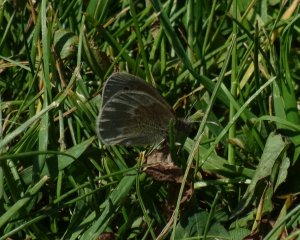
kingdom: Animalia
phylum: Arthropoda
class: Insecta
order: Lepidoptera
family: Nymphalidae
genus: Coenonympha
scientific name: Coenonympha tullia
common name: Large Heath
